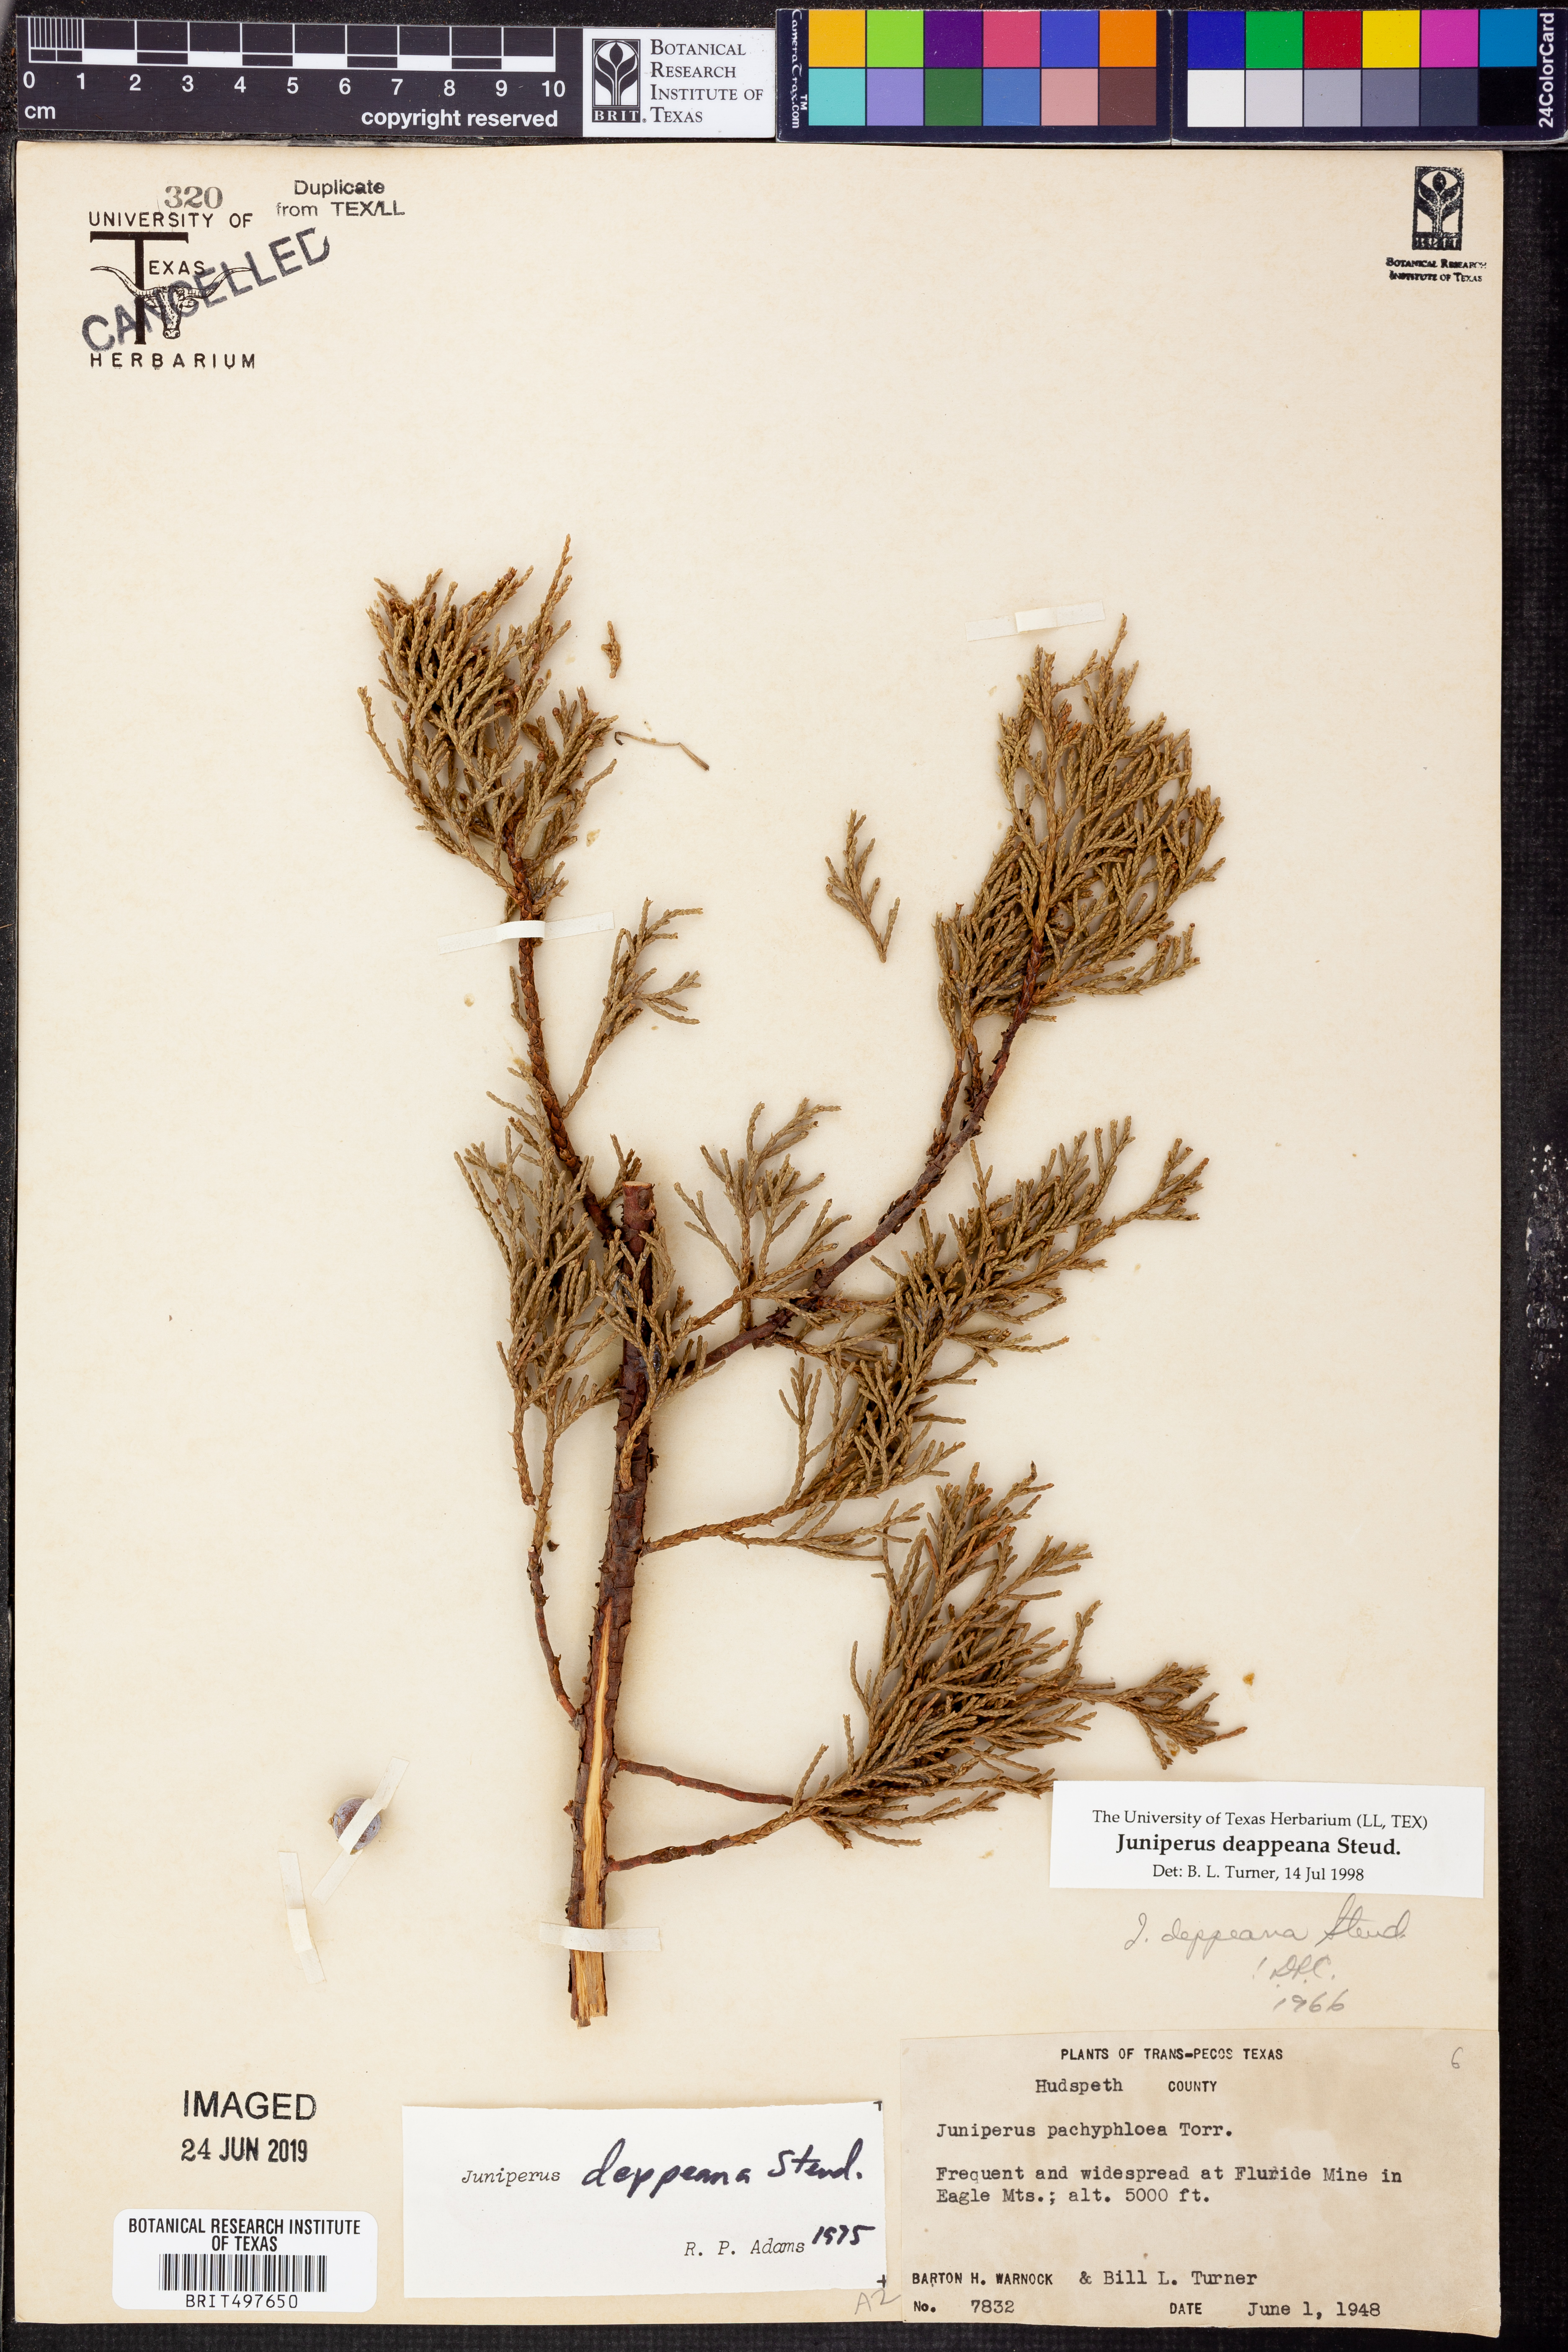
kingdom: Plantae
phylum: Tracheophyta
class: Pinopsida
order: Pinales
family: Cupressaceae
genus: Juniperus
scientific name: Juniperus deppeana
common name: Alligator juniper
